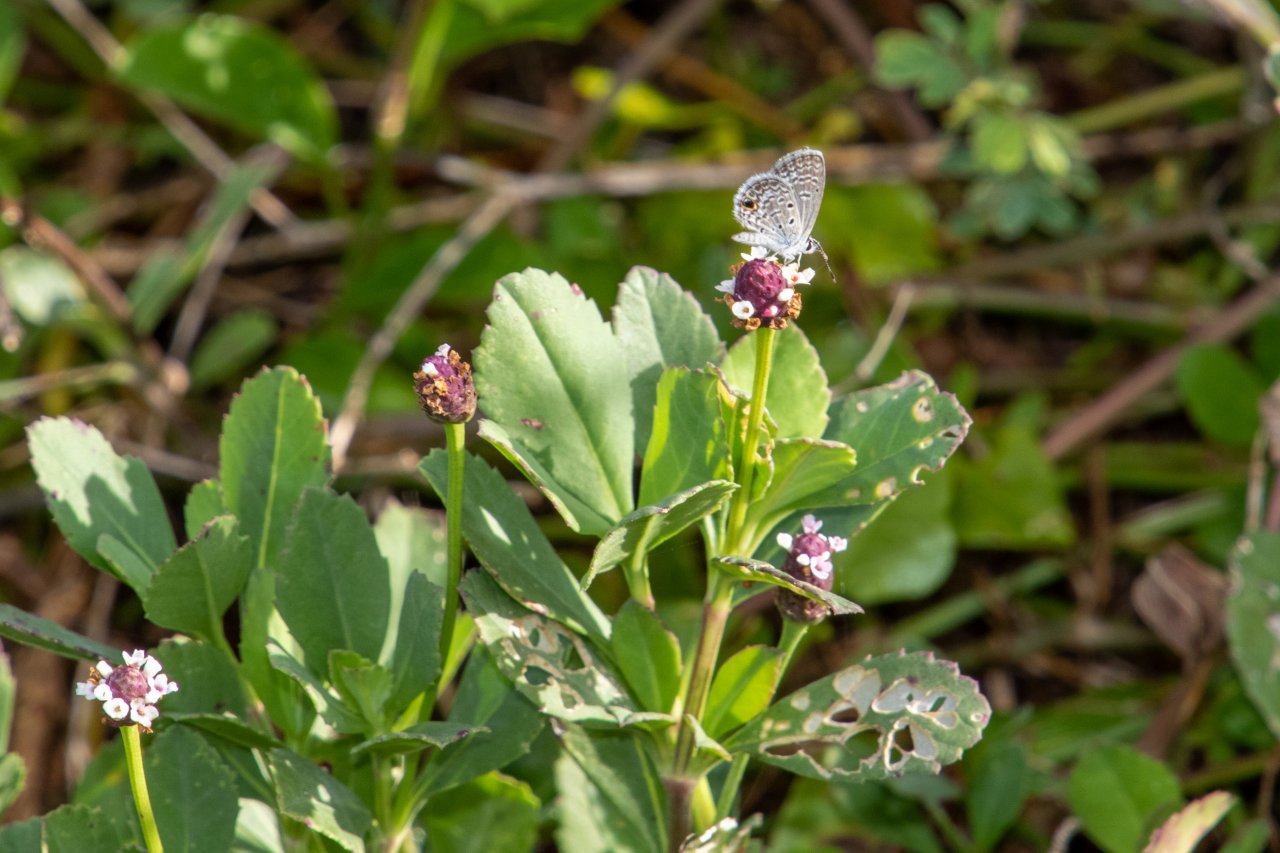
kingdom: Animalia
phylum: Arthropoda
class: Insecta
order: Lepidoptera
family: Lycaenidae
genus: Hemiargus
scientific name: Hemiargus ceraunus
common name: Ceraunus Blue
